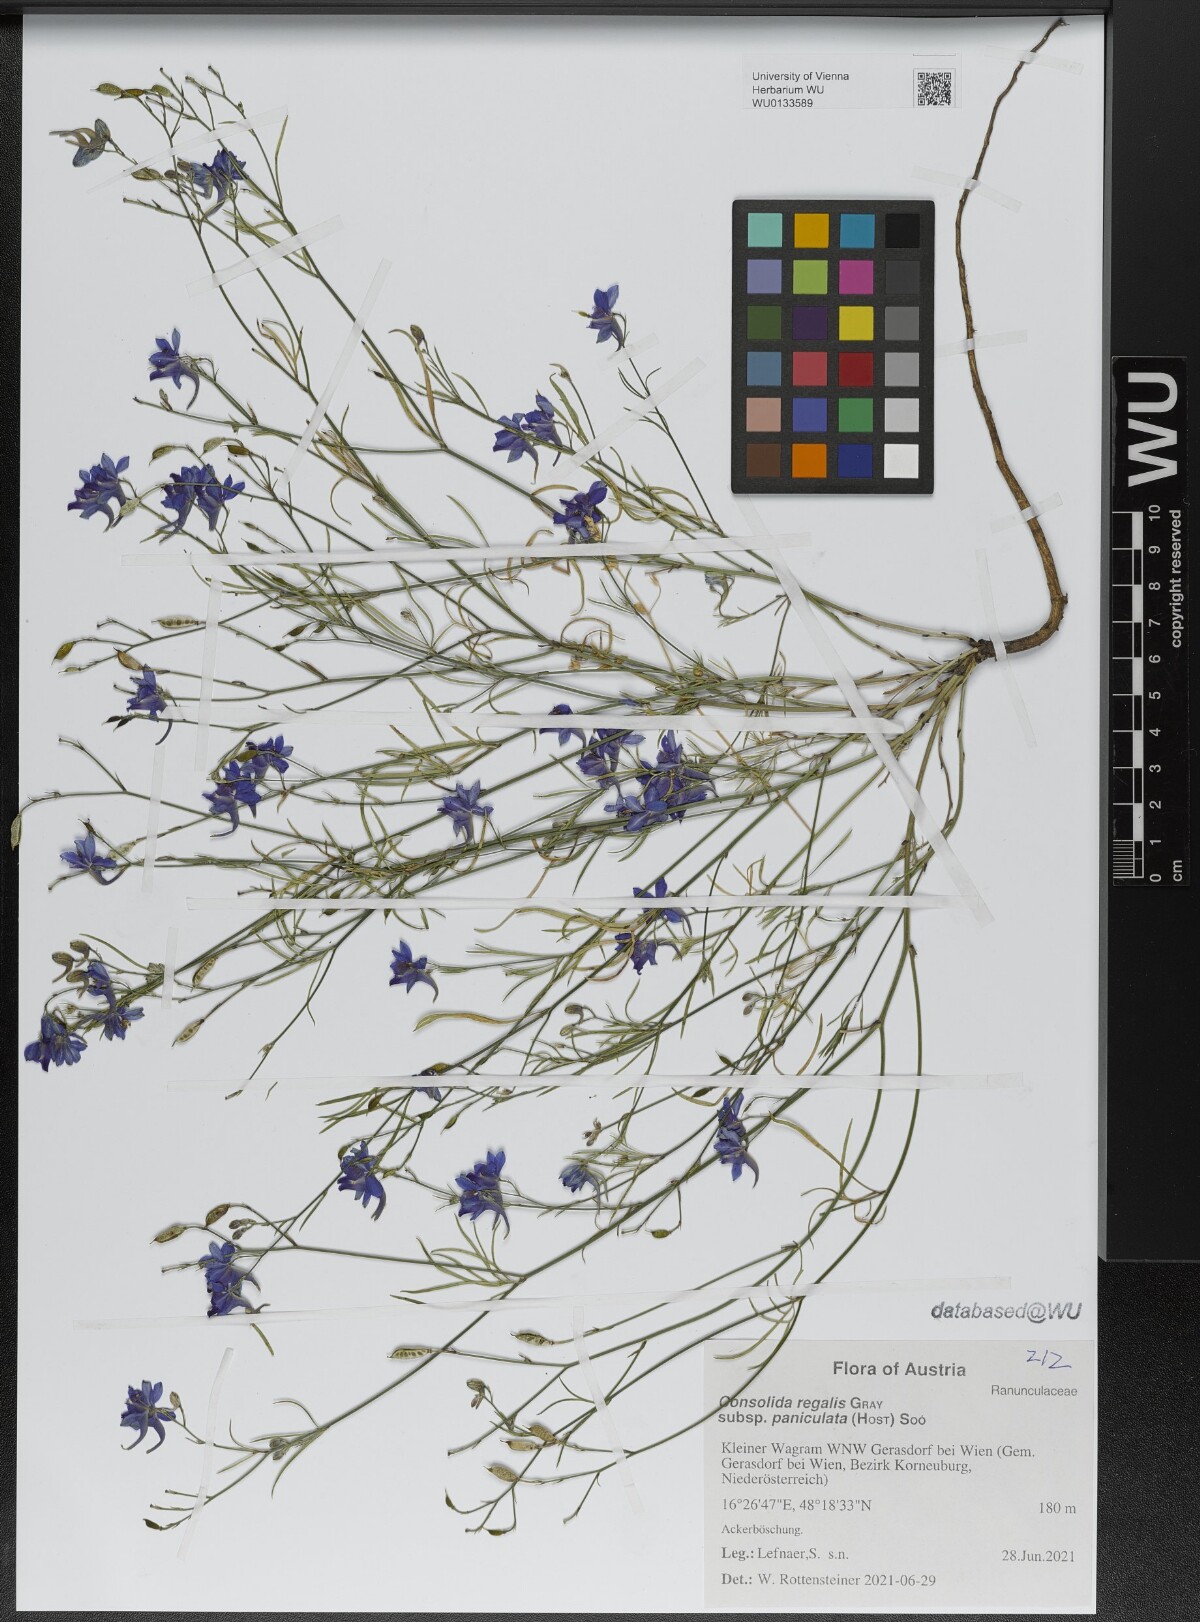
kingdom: Plantae
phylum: Tracheophyta
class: Magnoliopsida
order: Ranunculales
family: Ranunculaceae
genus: Delphinium
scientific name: Delphinium consolida
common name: Branching larkspur
